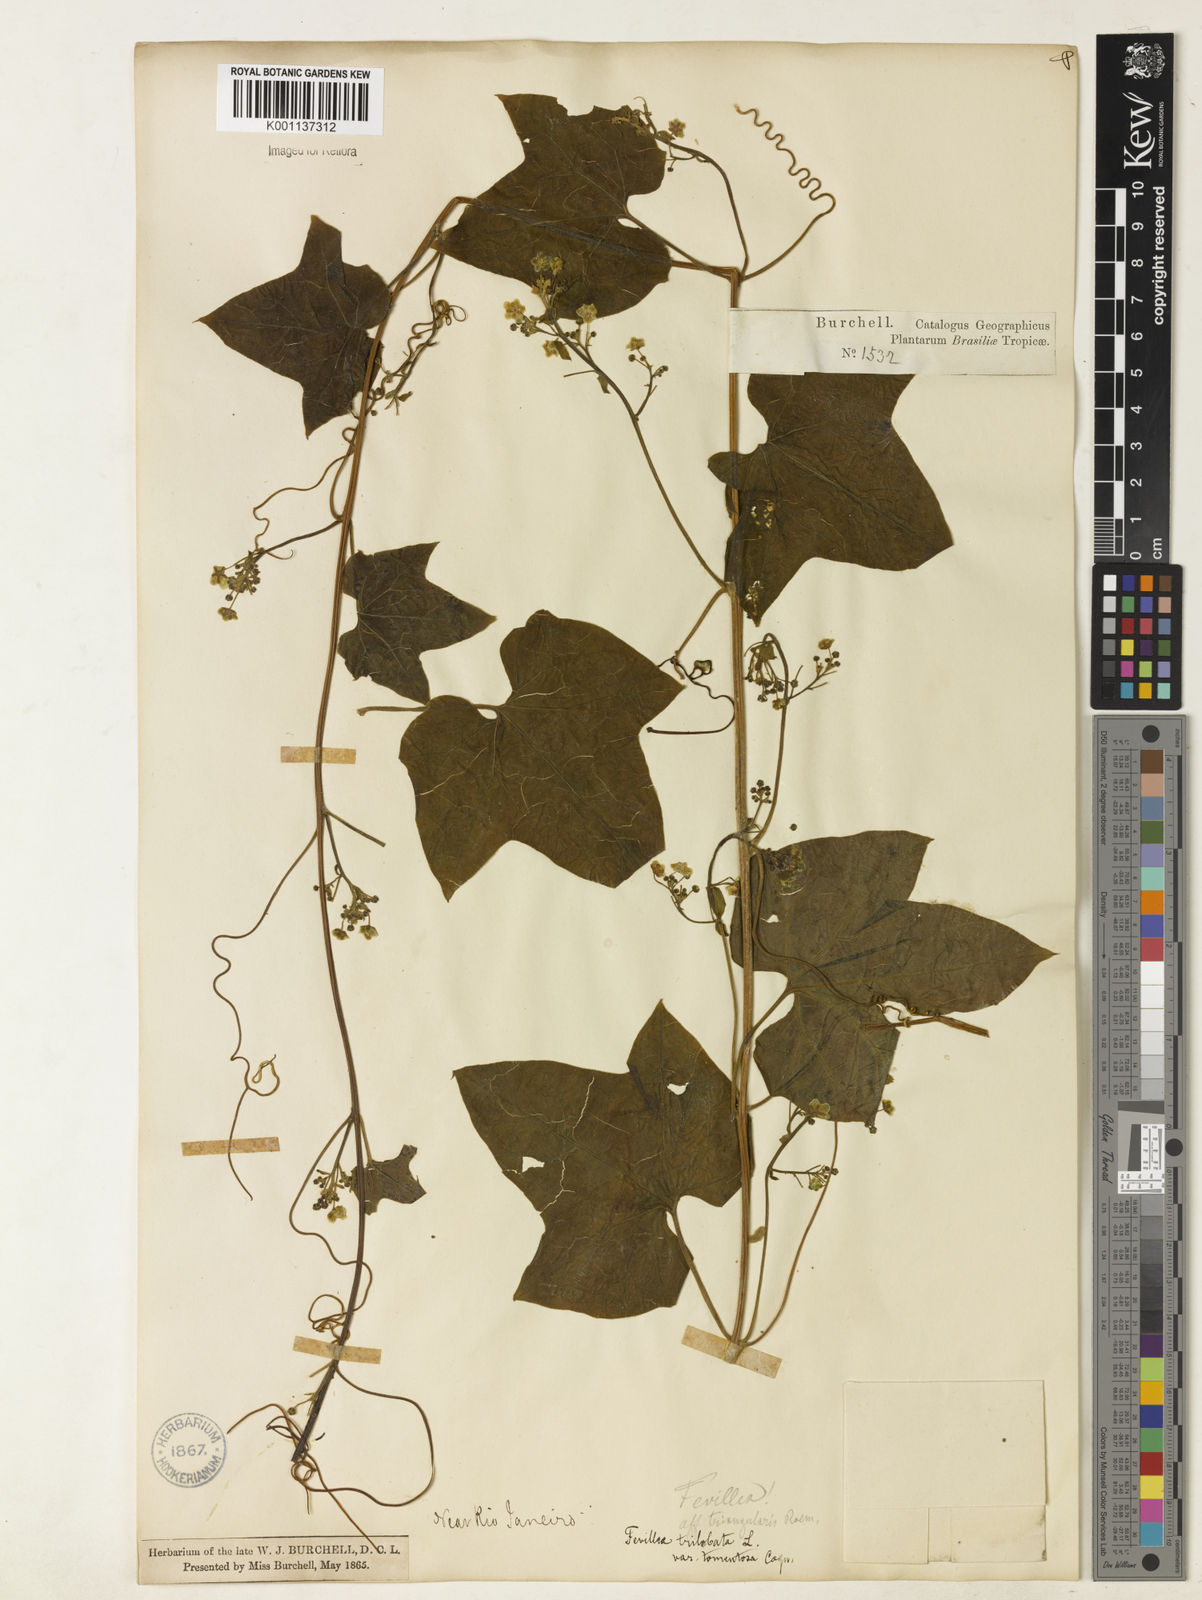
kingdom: Plantae
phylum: Tracheophyta
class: Magnoliopsida
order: Cucurbitales
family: Cucurbitaceae
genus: Fevillea
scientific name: Fevillea trilobata
